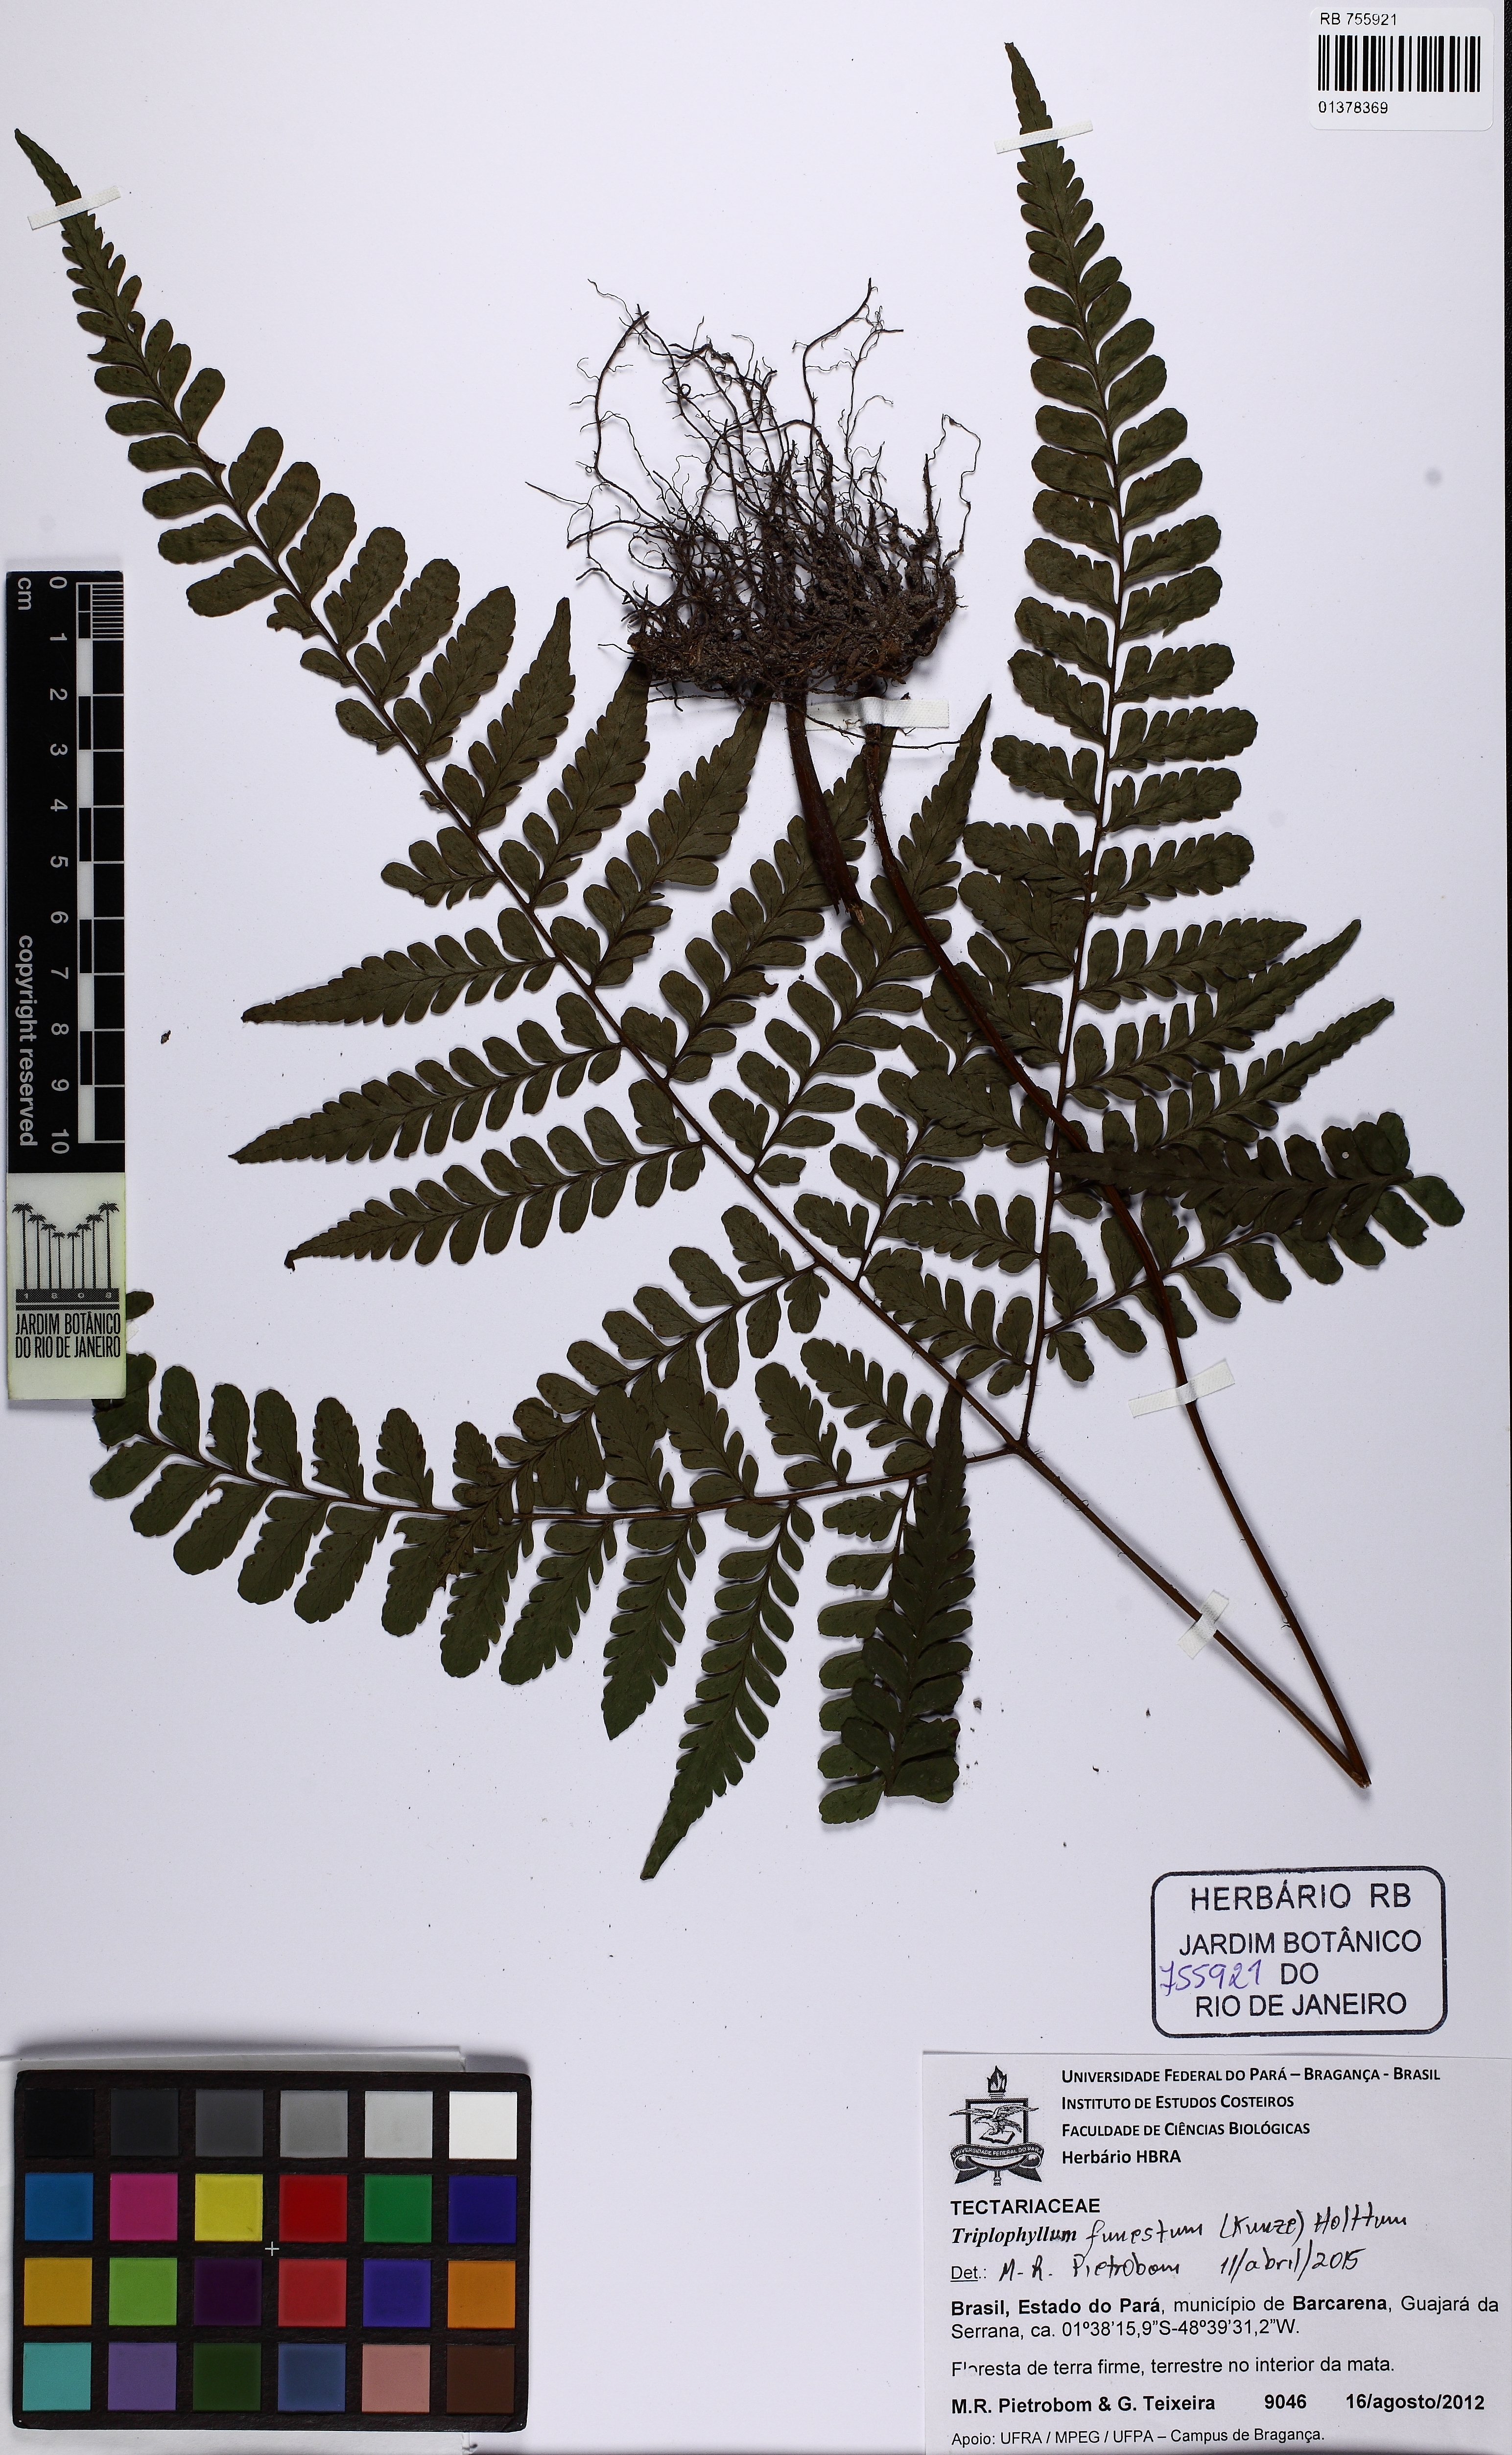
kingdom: Plantae
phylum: Tracheophyta
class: Polypodiopsida
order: Polypodiales
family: Tectariaceae
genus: Triplophyllum
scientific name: Triplophyllum funestum
